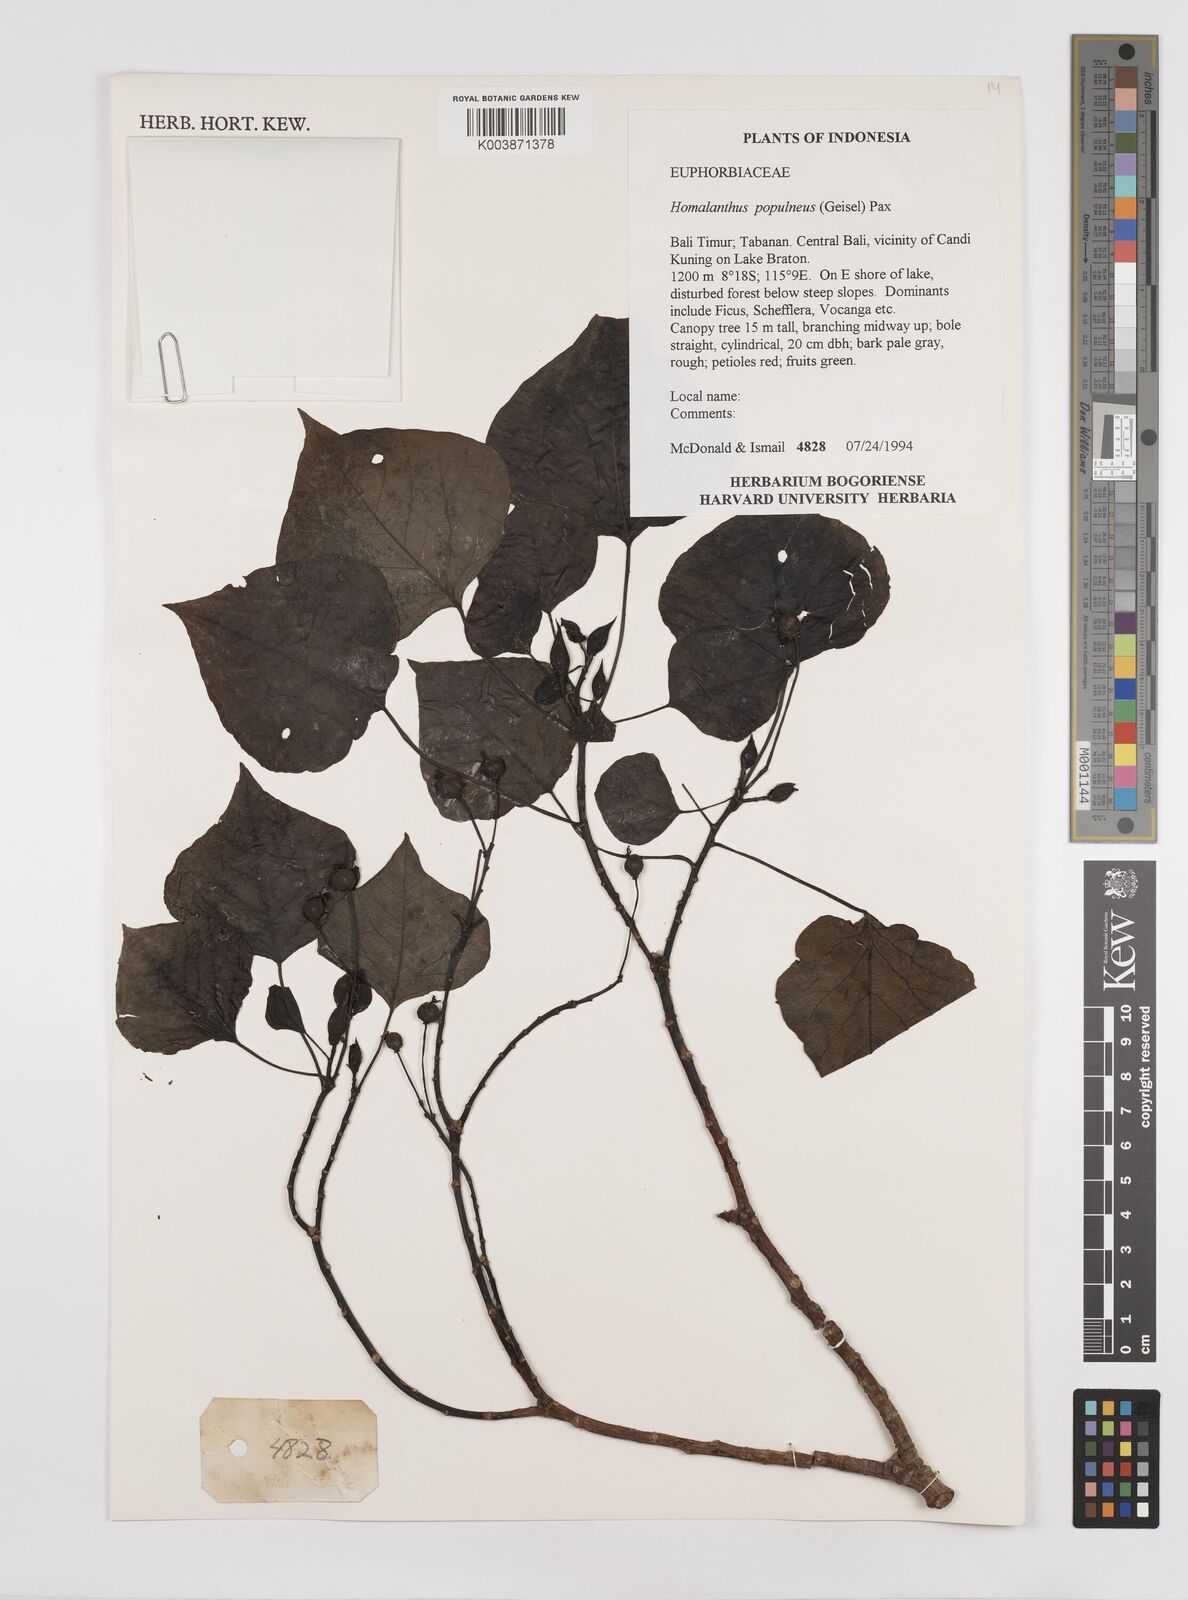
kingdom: Plantae
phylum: Tracheophyta
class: Magnoliopsida
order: Malpighiales
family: Euphorbiaceae
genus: Homalanthus
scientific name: Homalanthus populneus
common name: Spurge
